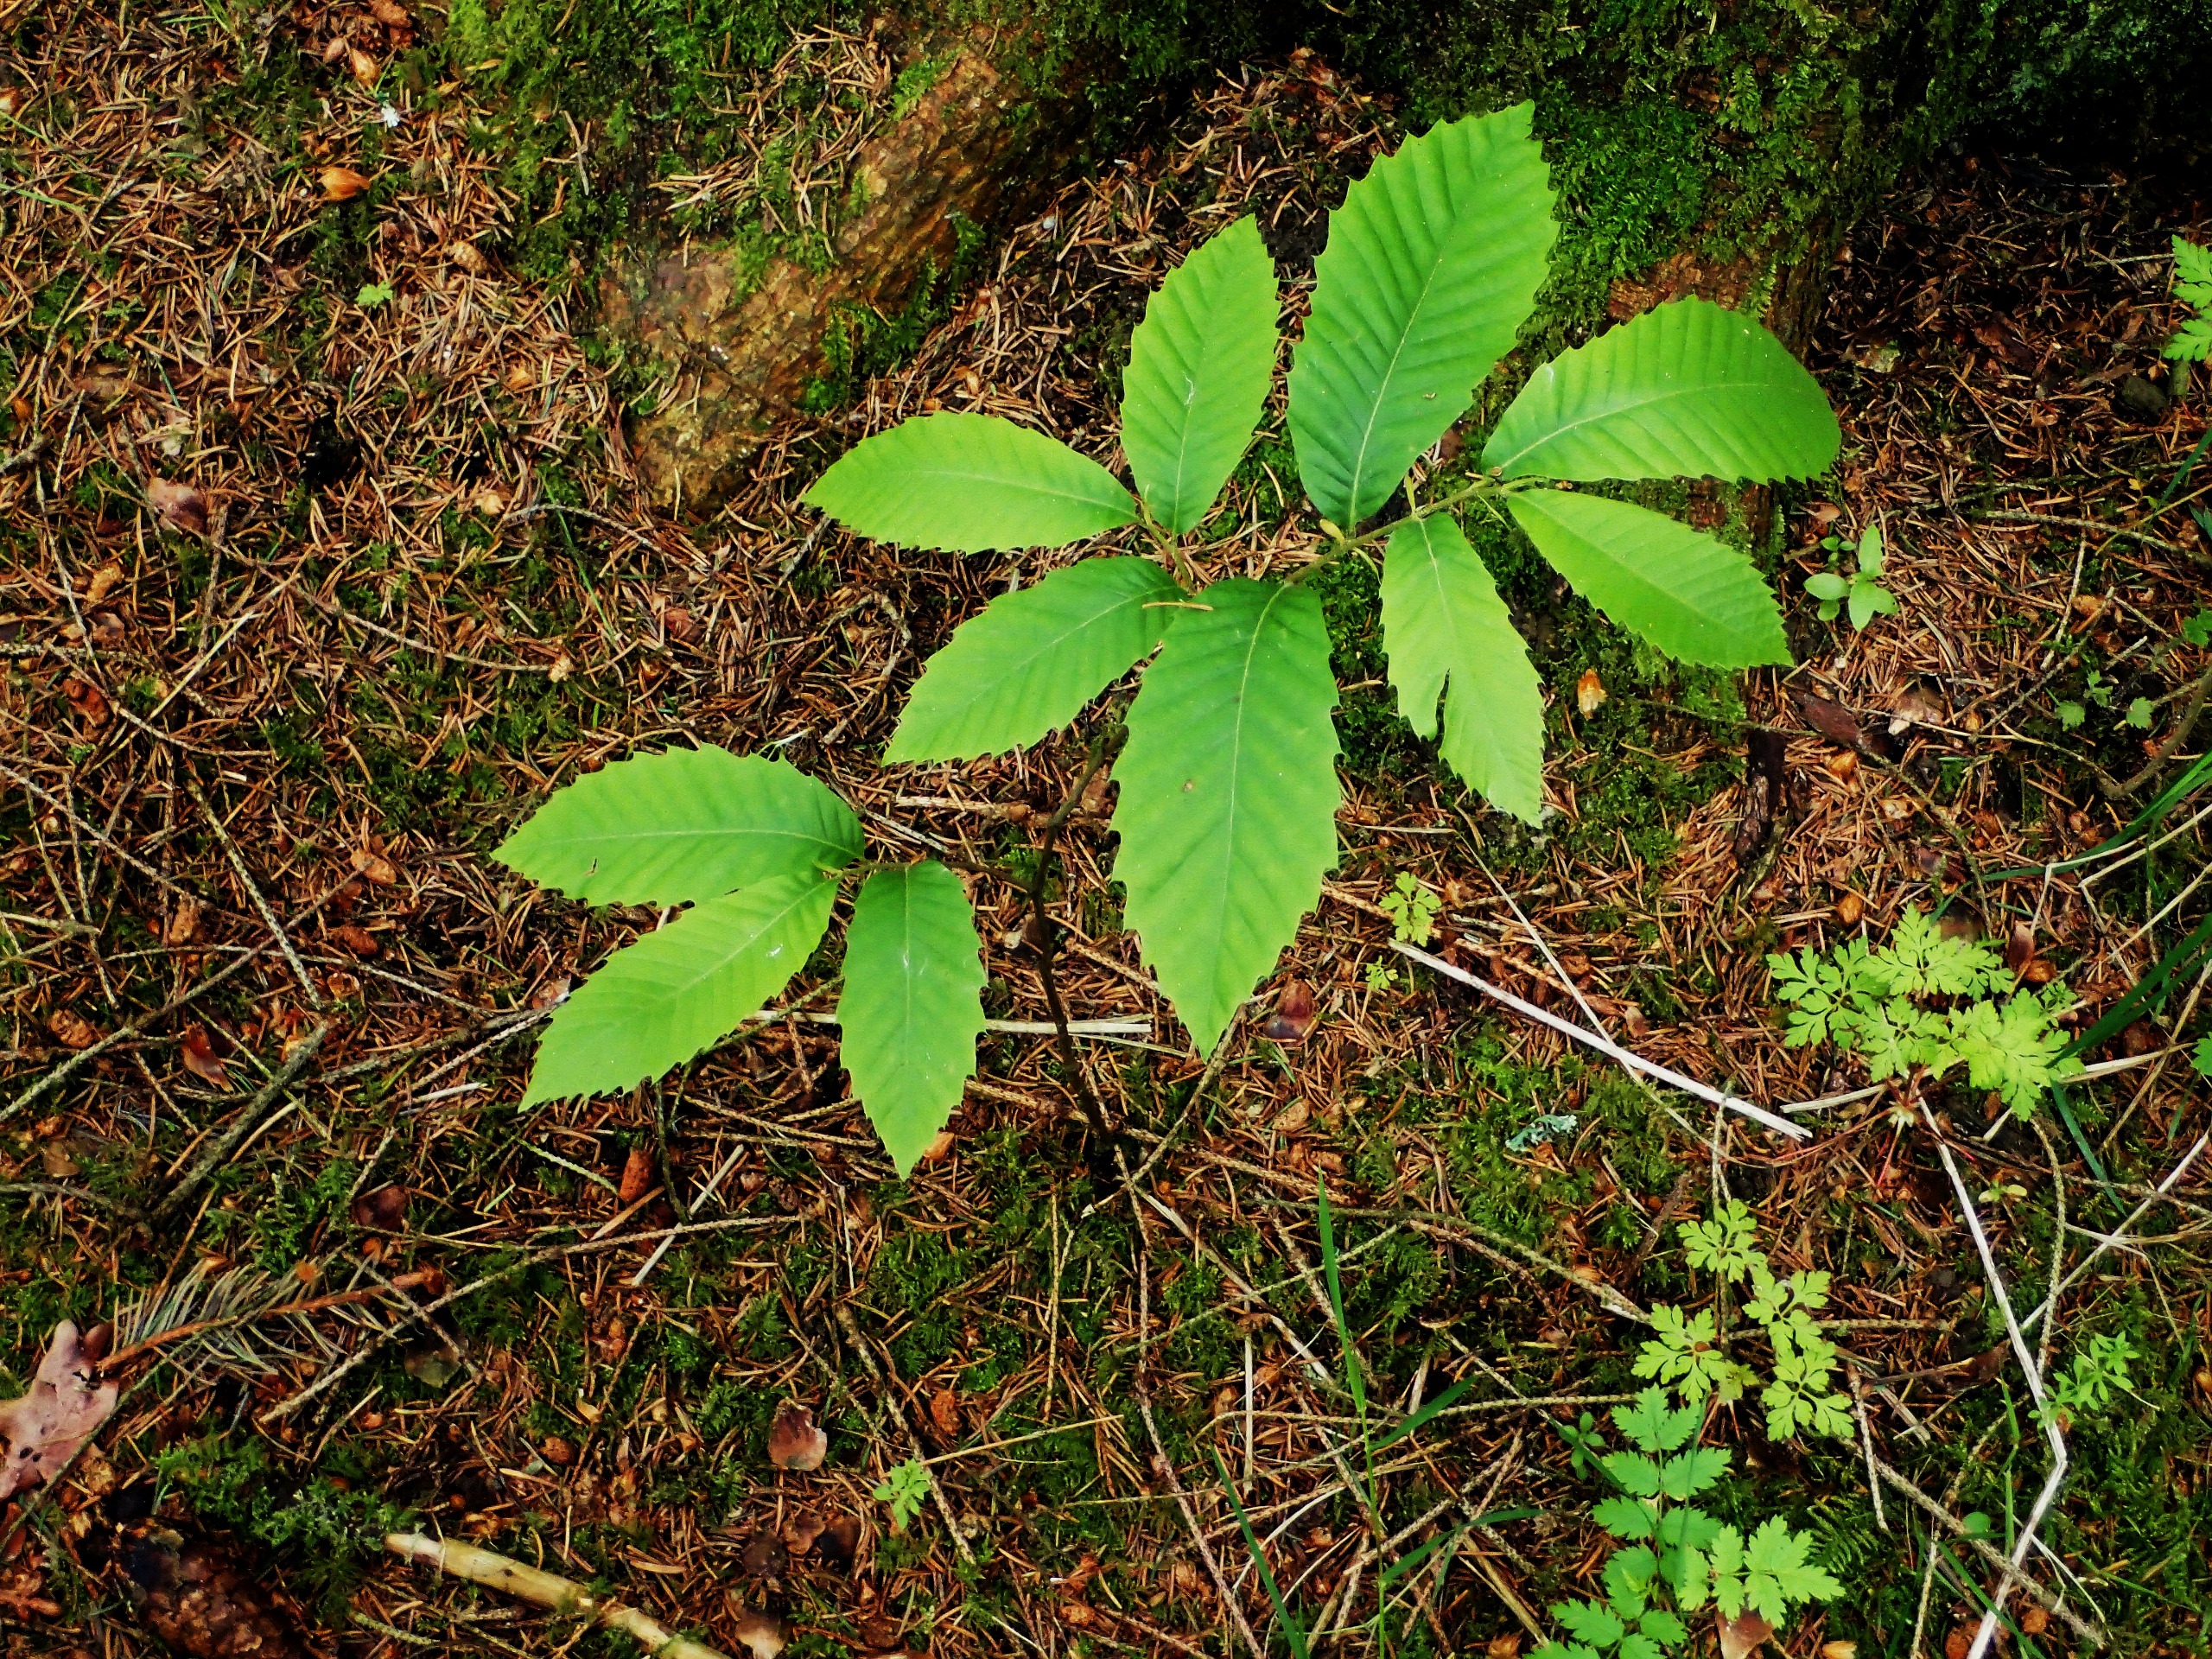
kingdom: Plantae
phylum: Tracheophyta
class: Magnoliopsida
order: Fagales
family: Fagaceae
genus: Castanea
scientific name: Castanea sativa
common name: Ægte kastanie
